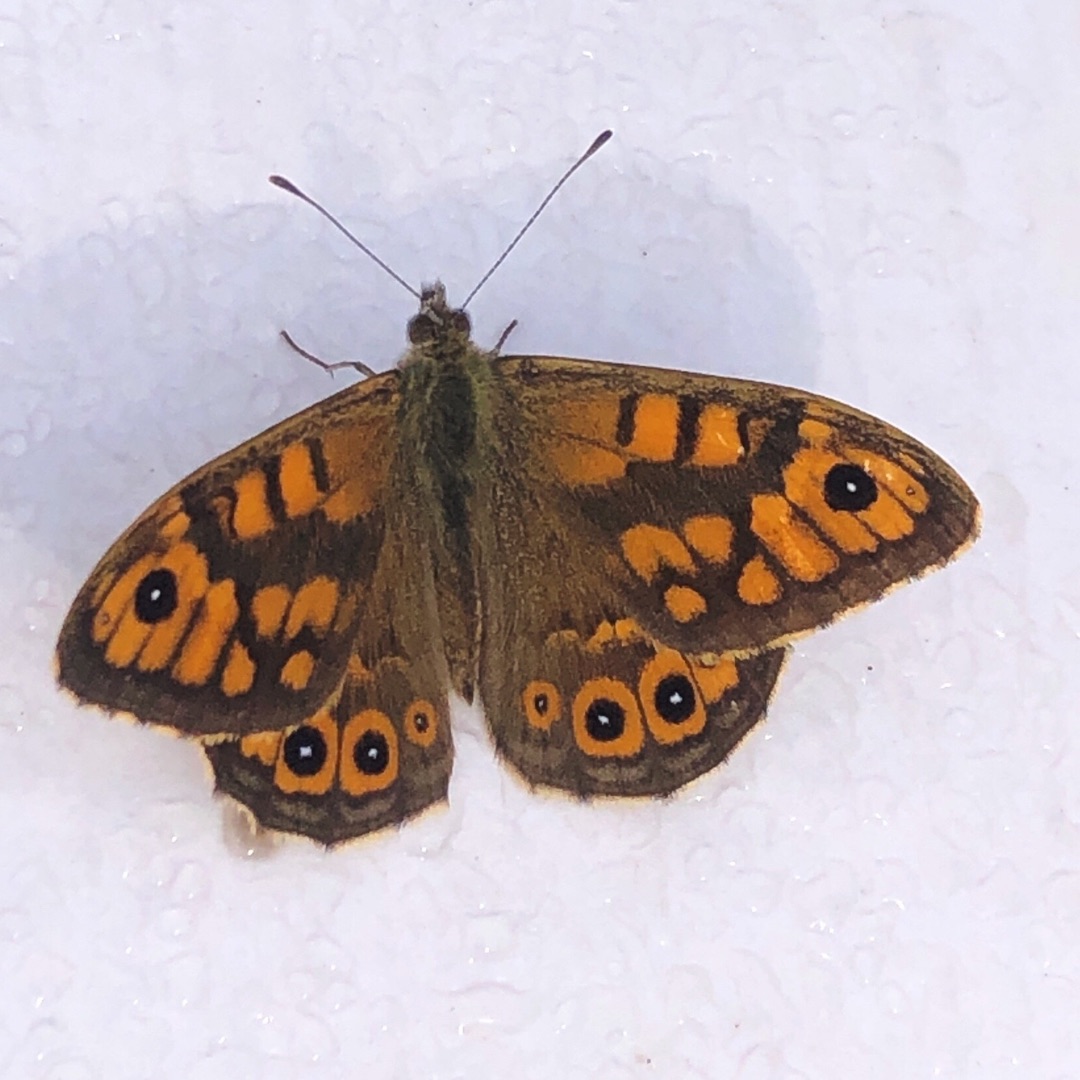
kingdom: Animalia
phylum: Arthropoda
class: Insecta
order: Lepidoptera
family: Nymphalidae
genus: Pararge
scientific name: Pararge Lasiommata megera
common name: Vejrandøje
